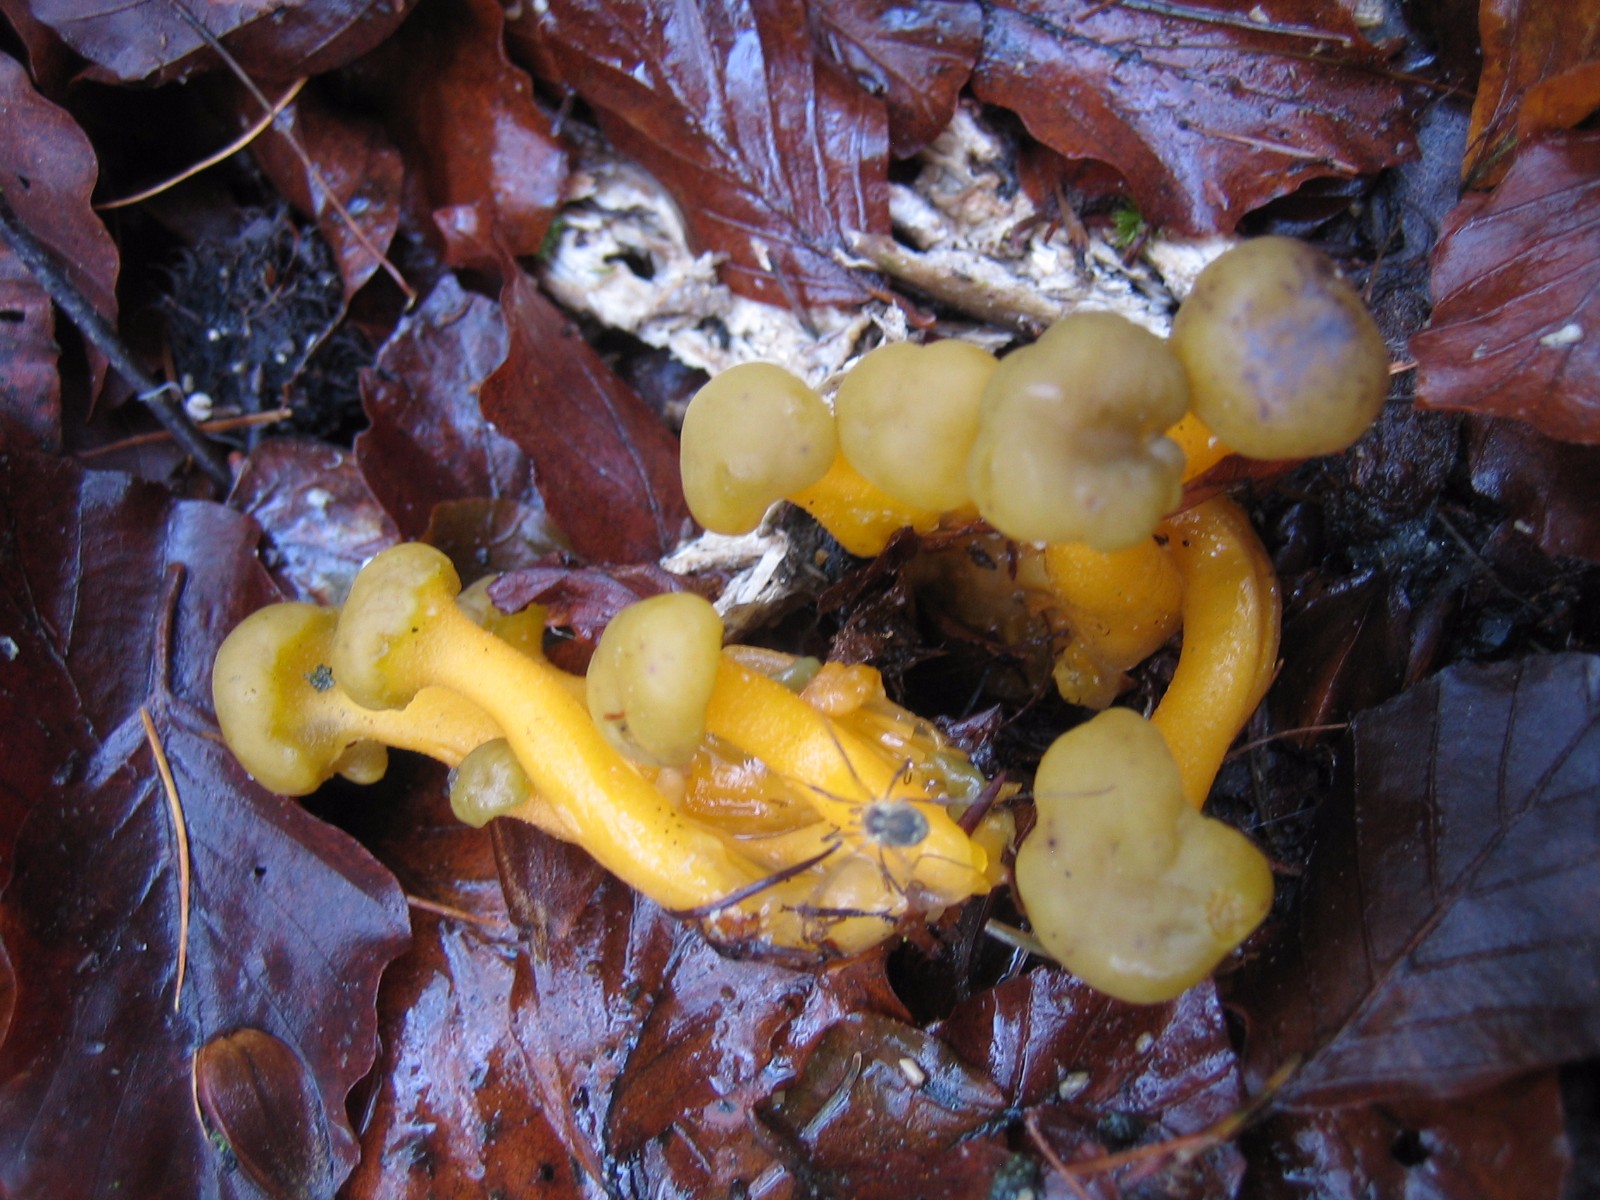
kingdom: Fungi
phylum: Ascomycota
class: Leotiomycetes
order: Leotiales
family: Leotiaceae
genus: Leotia
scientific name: Leotia lubrica
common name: ravsvamp
